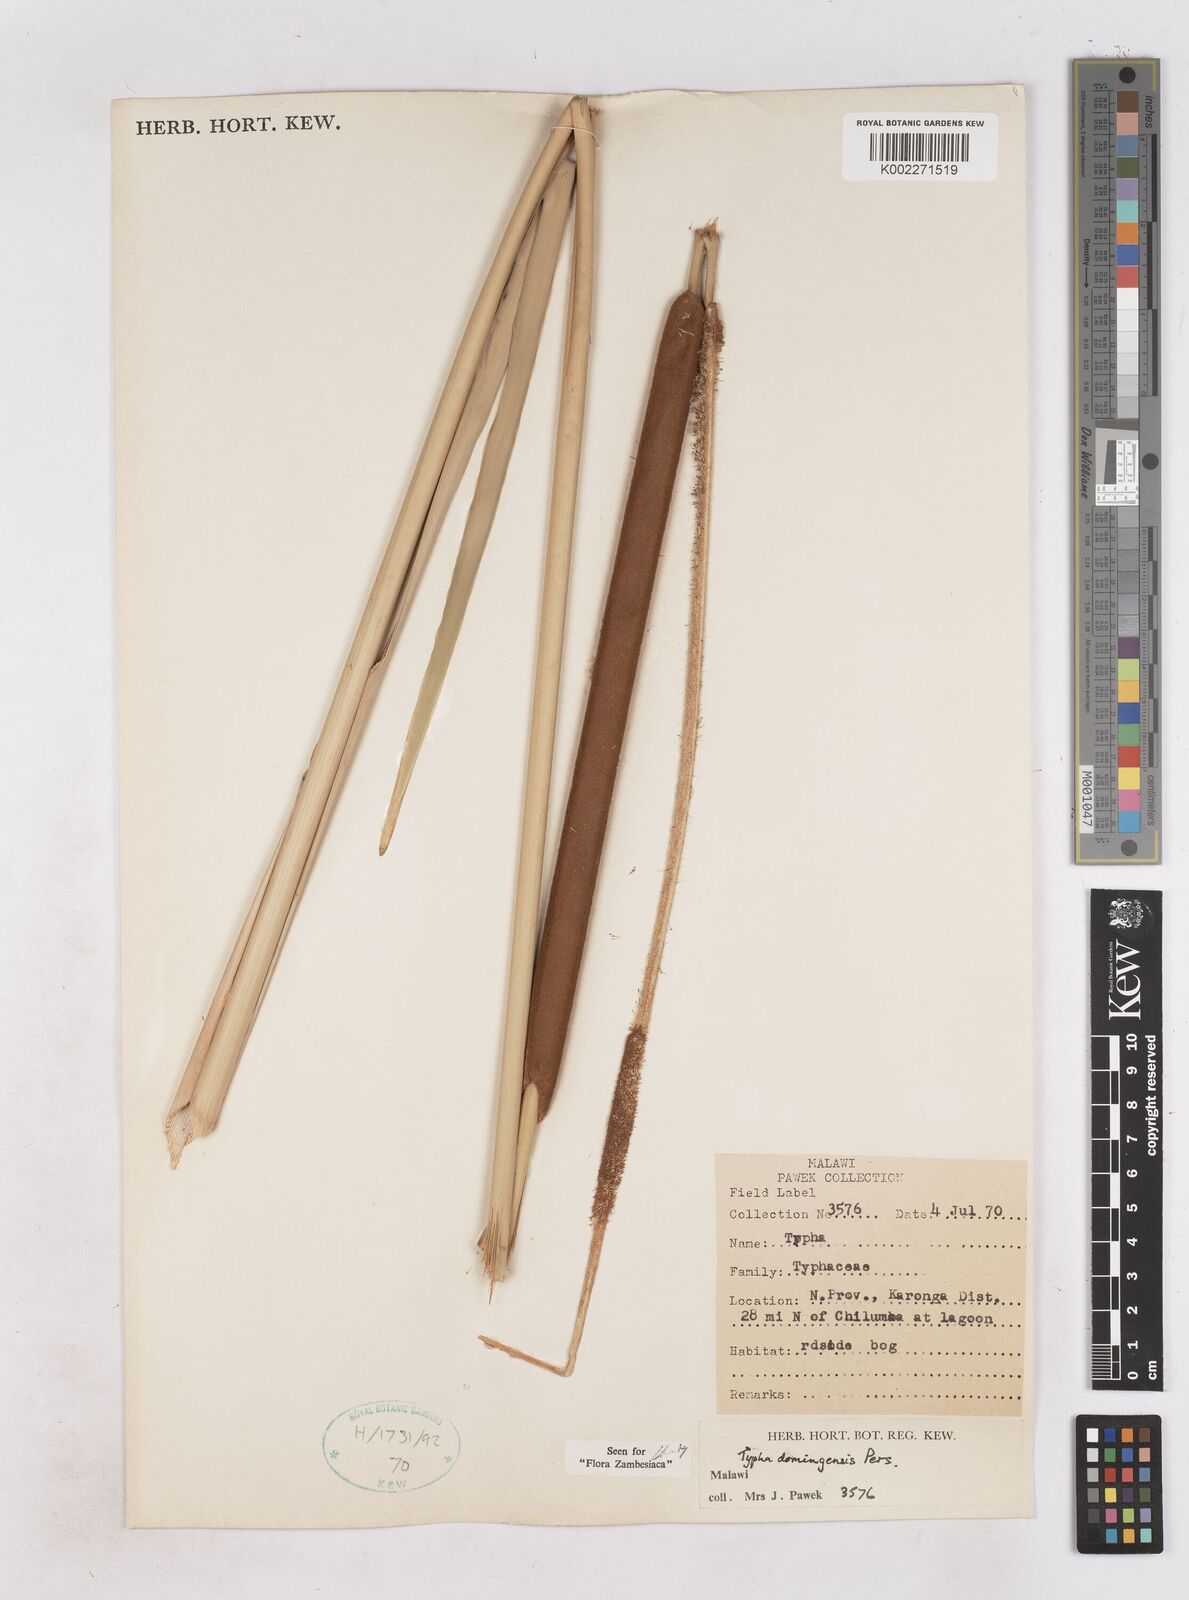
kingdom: Plantae
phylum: Tracheophyta
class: Liliopsida
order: Poales
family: Typhaceae
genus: Typha
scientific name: Typha domingensis
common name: Southern cattail
